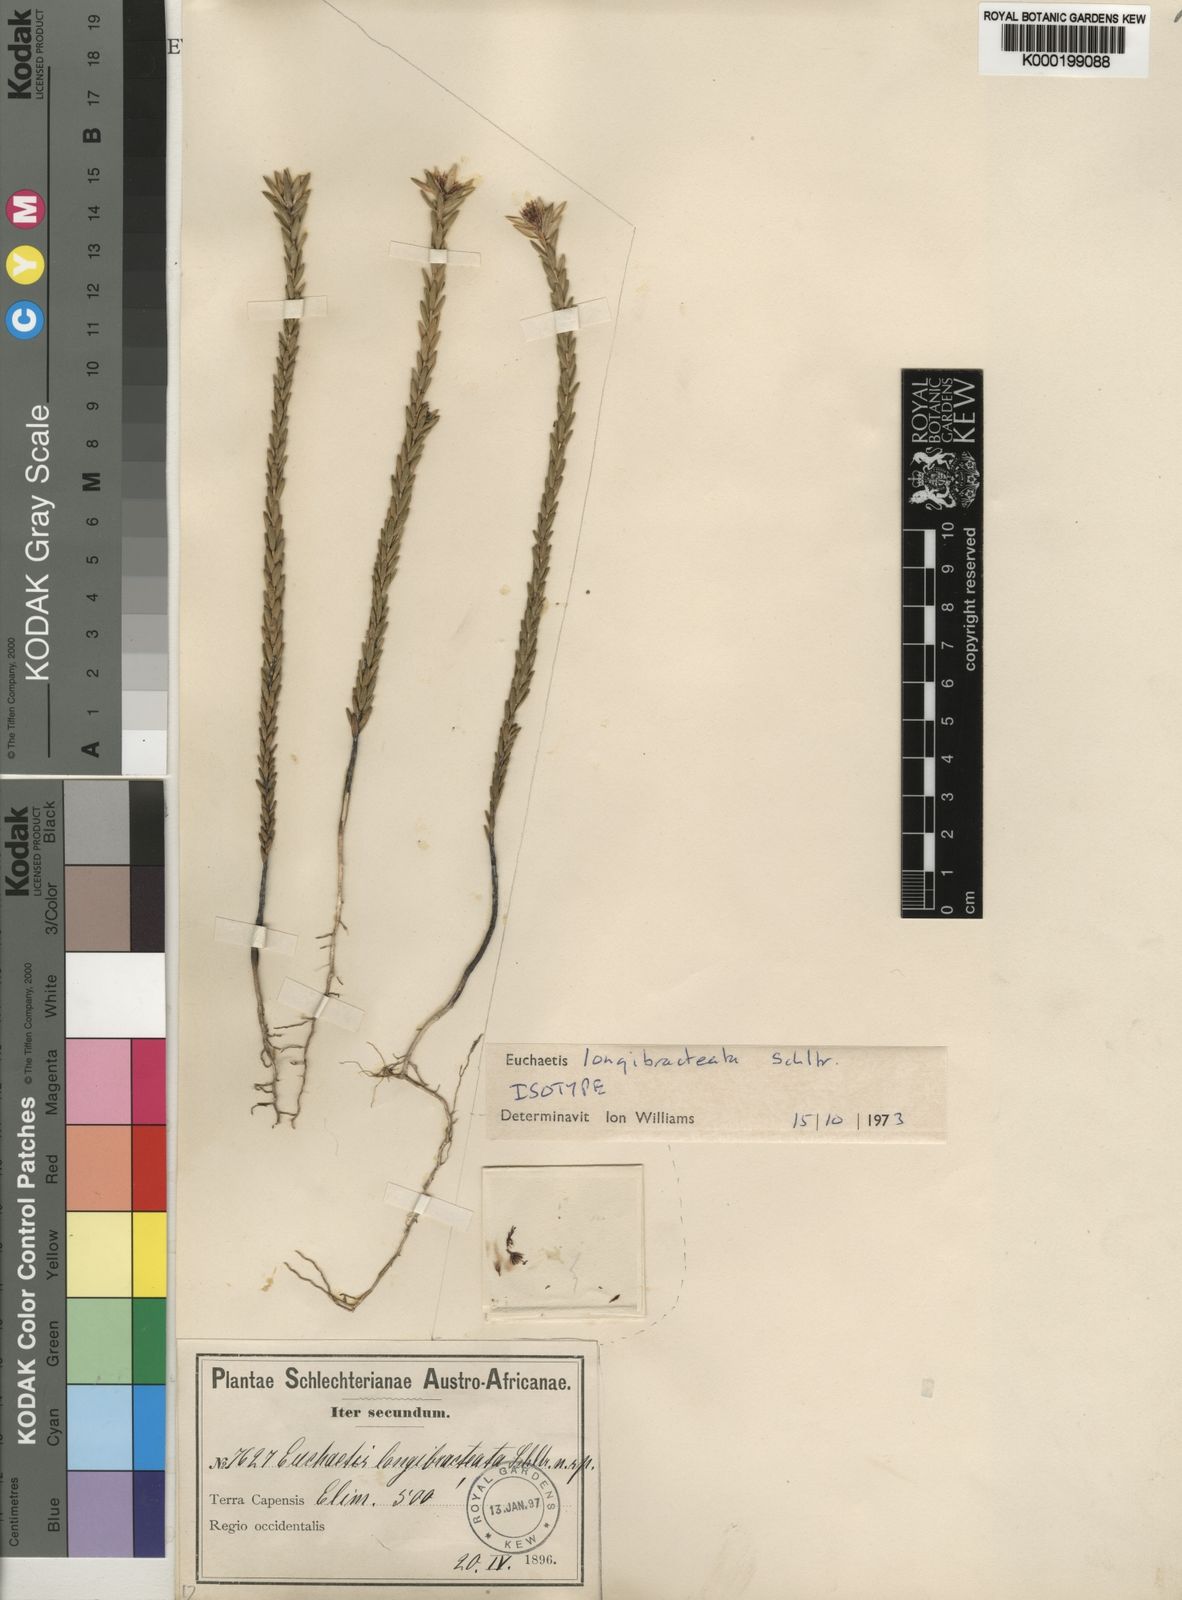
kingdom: Plantae
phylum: Tracheophyta
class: Magnoliopsida
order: Sapindales
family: Rutaceae
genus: Euchaetis
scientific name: Euchaetis longibracteata
